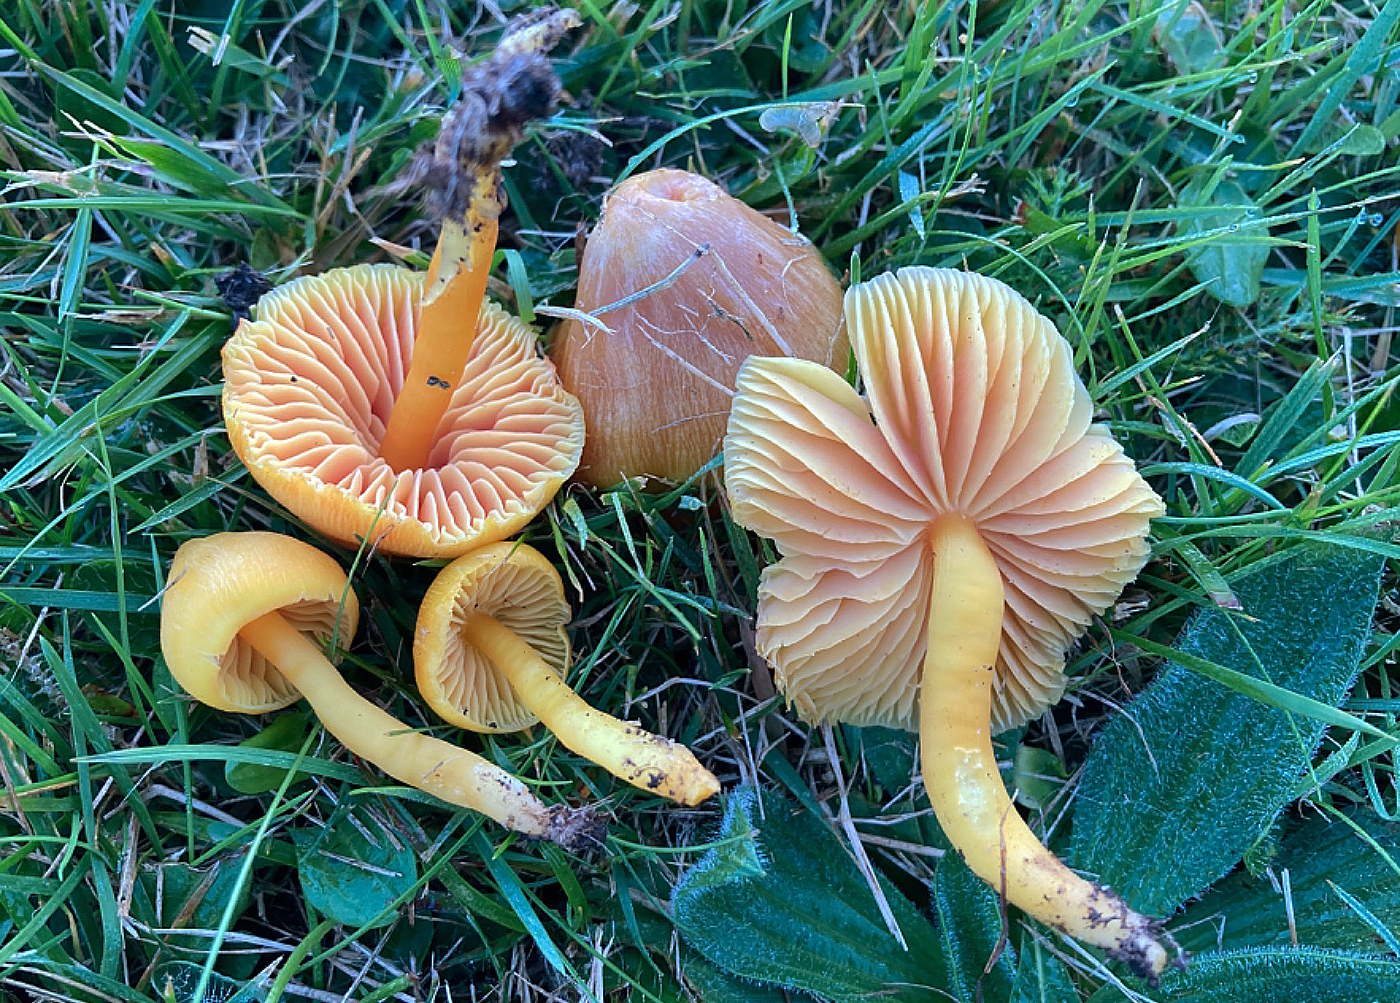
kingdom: Fungi
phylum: Basidiomycota
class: Agaricomycetes
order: Agaricales
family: Hygrophoraceae
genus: Hygrocybe
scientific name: Hygrocybe quieta
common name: tæge-vokshat
